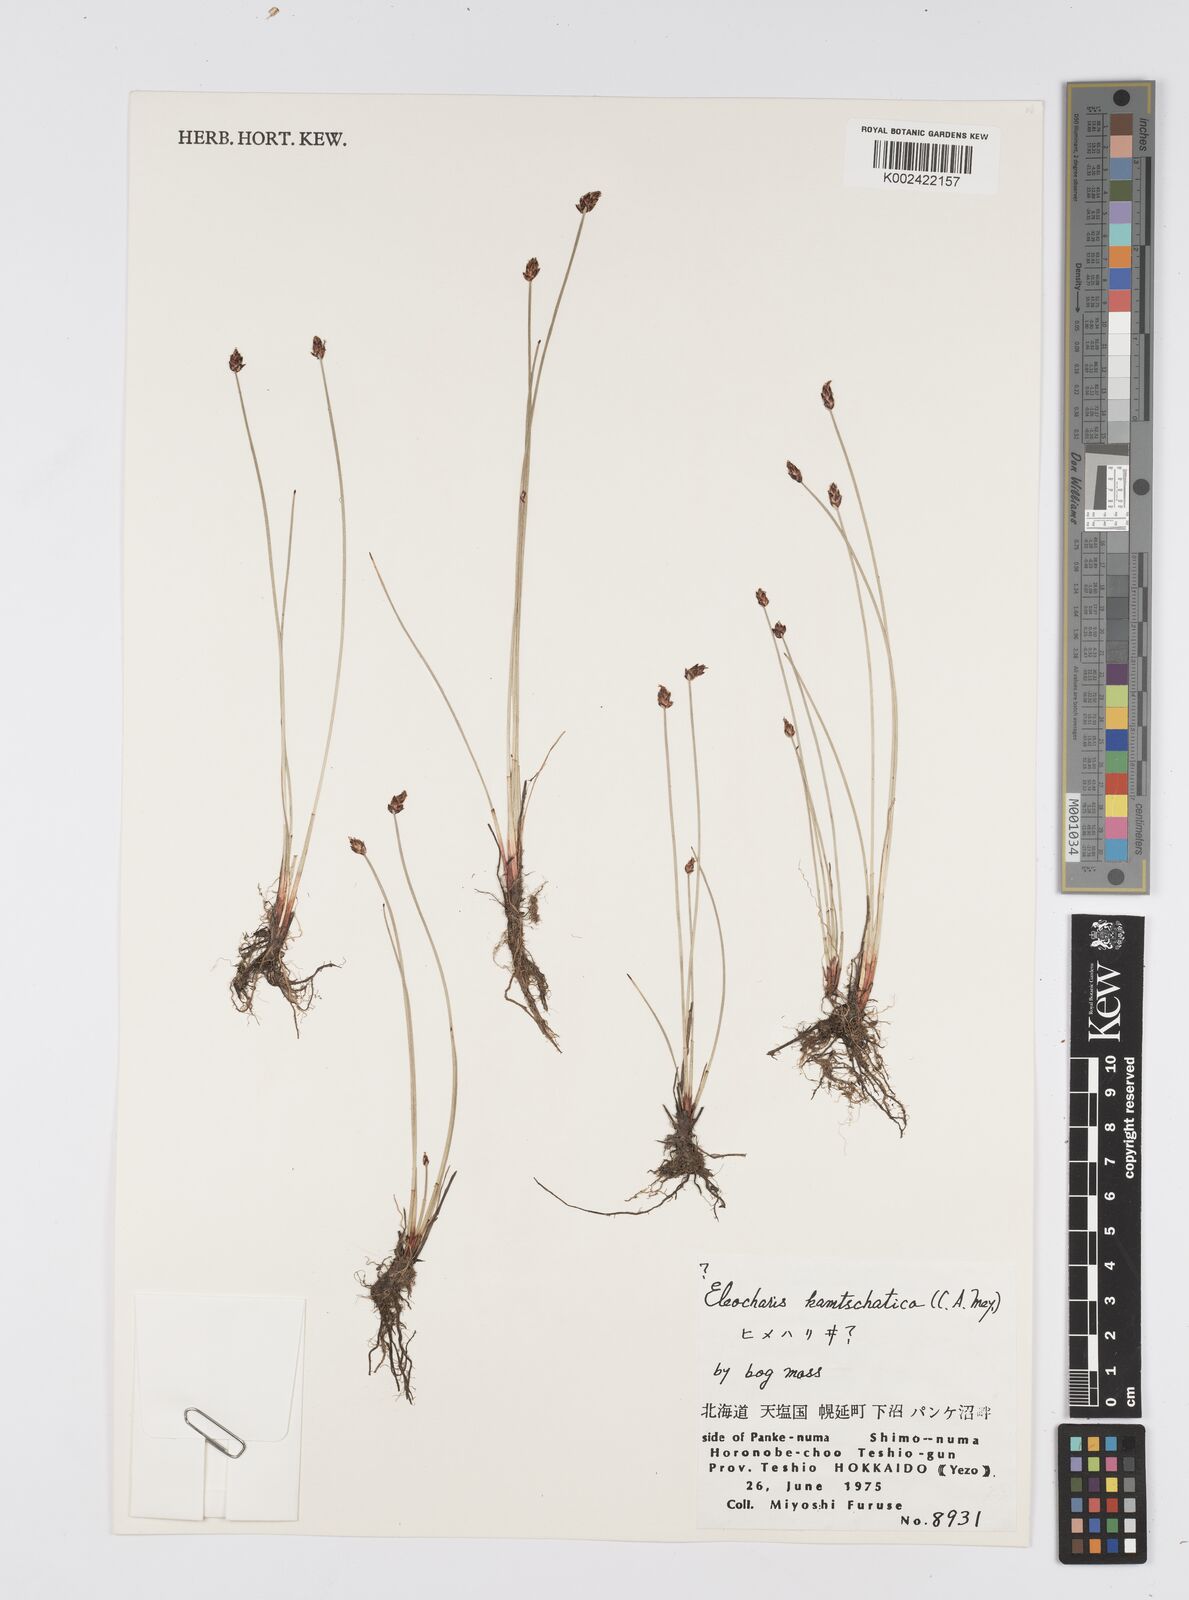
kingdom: Plantae
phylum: Tracheophyta
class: Liliopsida
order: Poales
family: Cyperaceae
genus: Eleocharis
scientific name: Eleocharis kamtschatica
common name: Kamchatka spikerush
